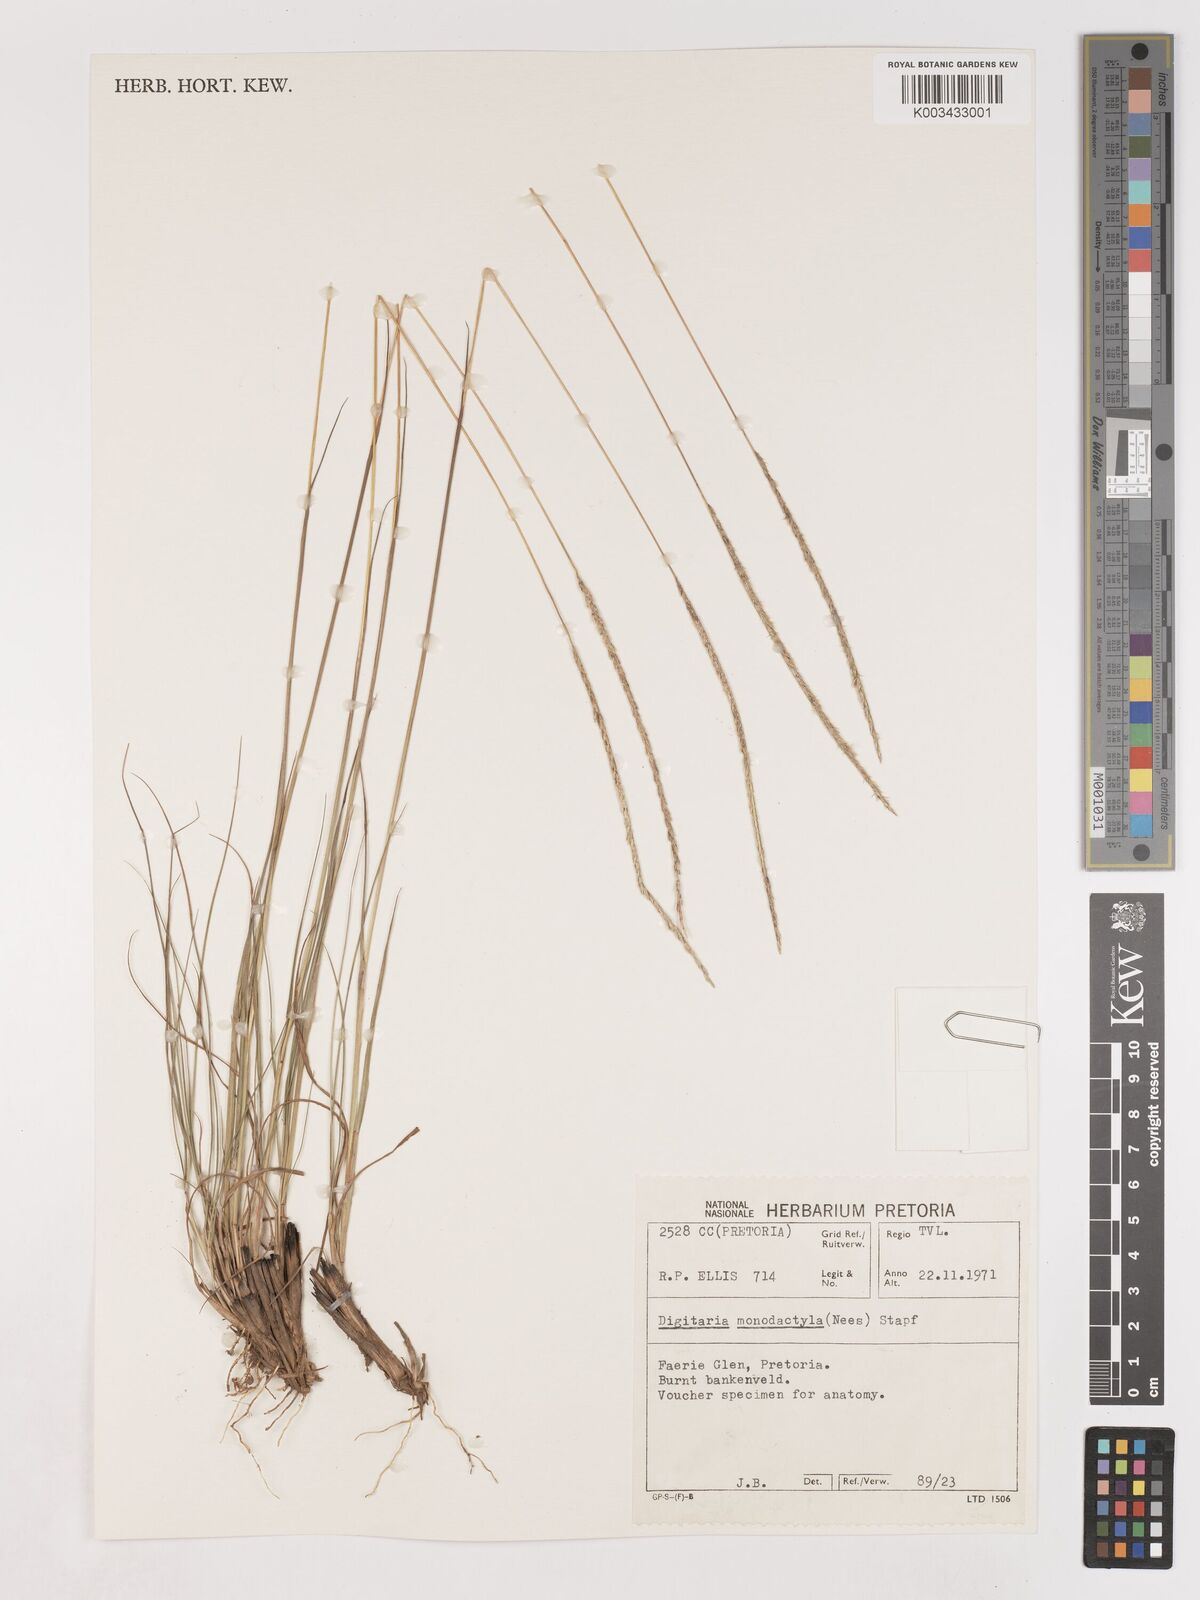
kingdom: Plantae
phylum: Tracheophyta
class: Liliopsida
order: Poales
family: Poaceae
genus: Digitaria
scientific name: Digitaria monodactyla
